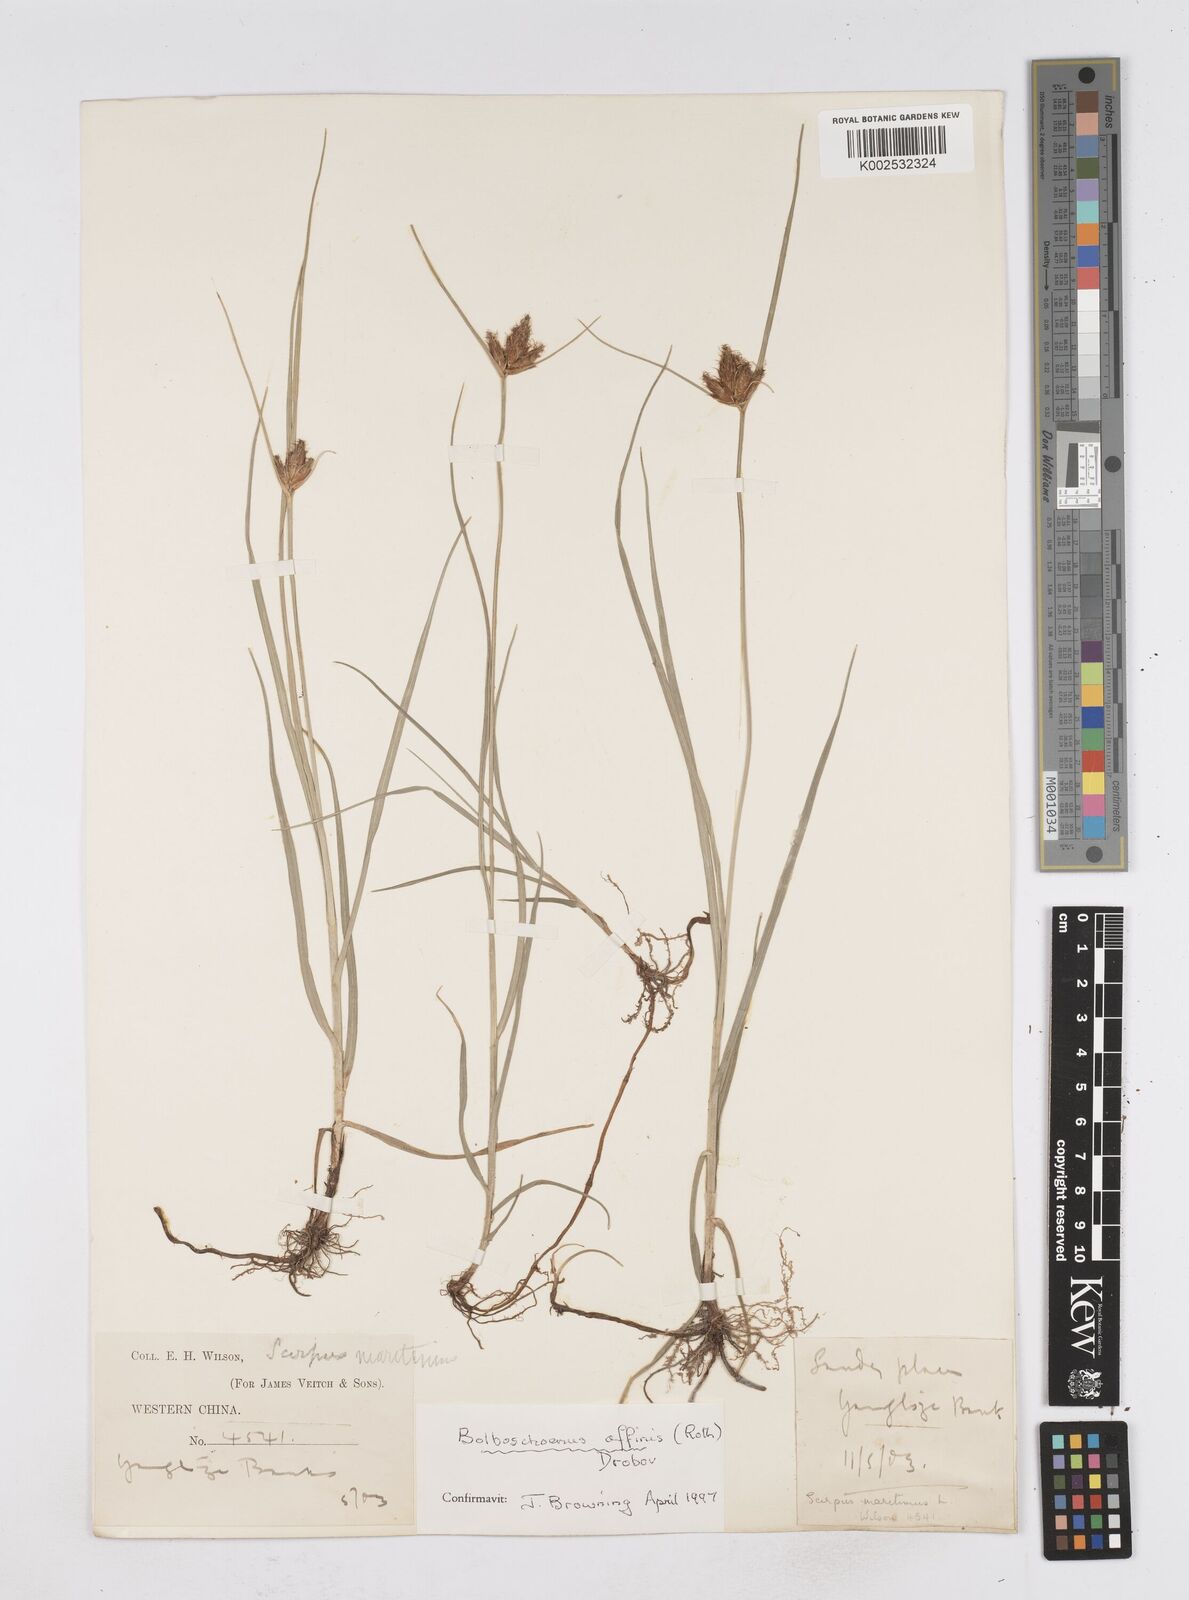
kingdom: Plantae
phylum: Tracheophyta
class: Liliopsida
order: Poales
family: Cyperaceae
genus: Bolboschoenus
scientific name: Bolboschoenus maritimus
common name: Sea club-rush
